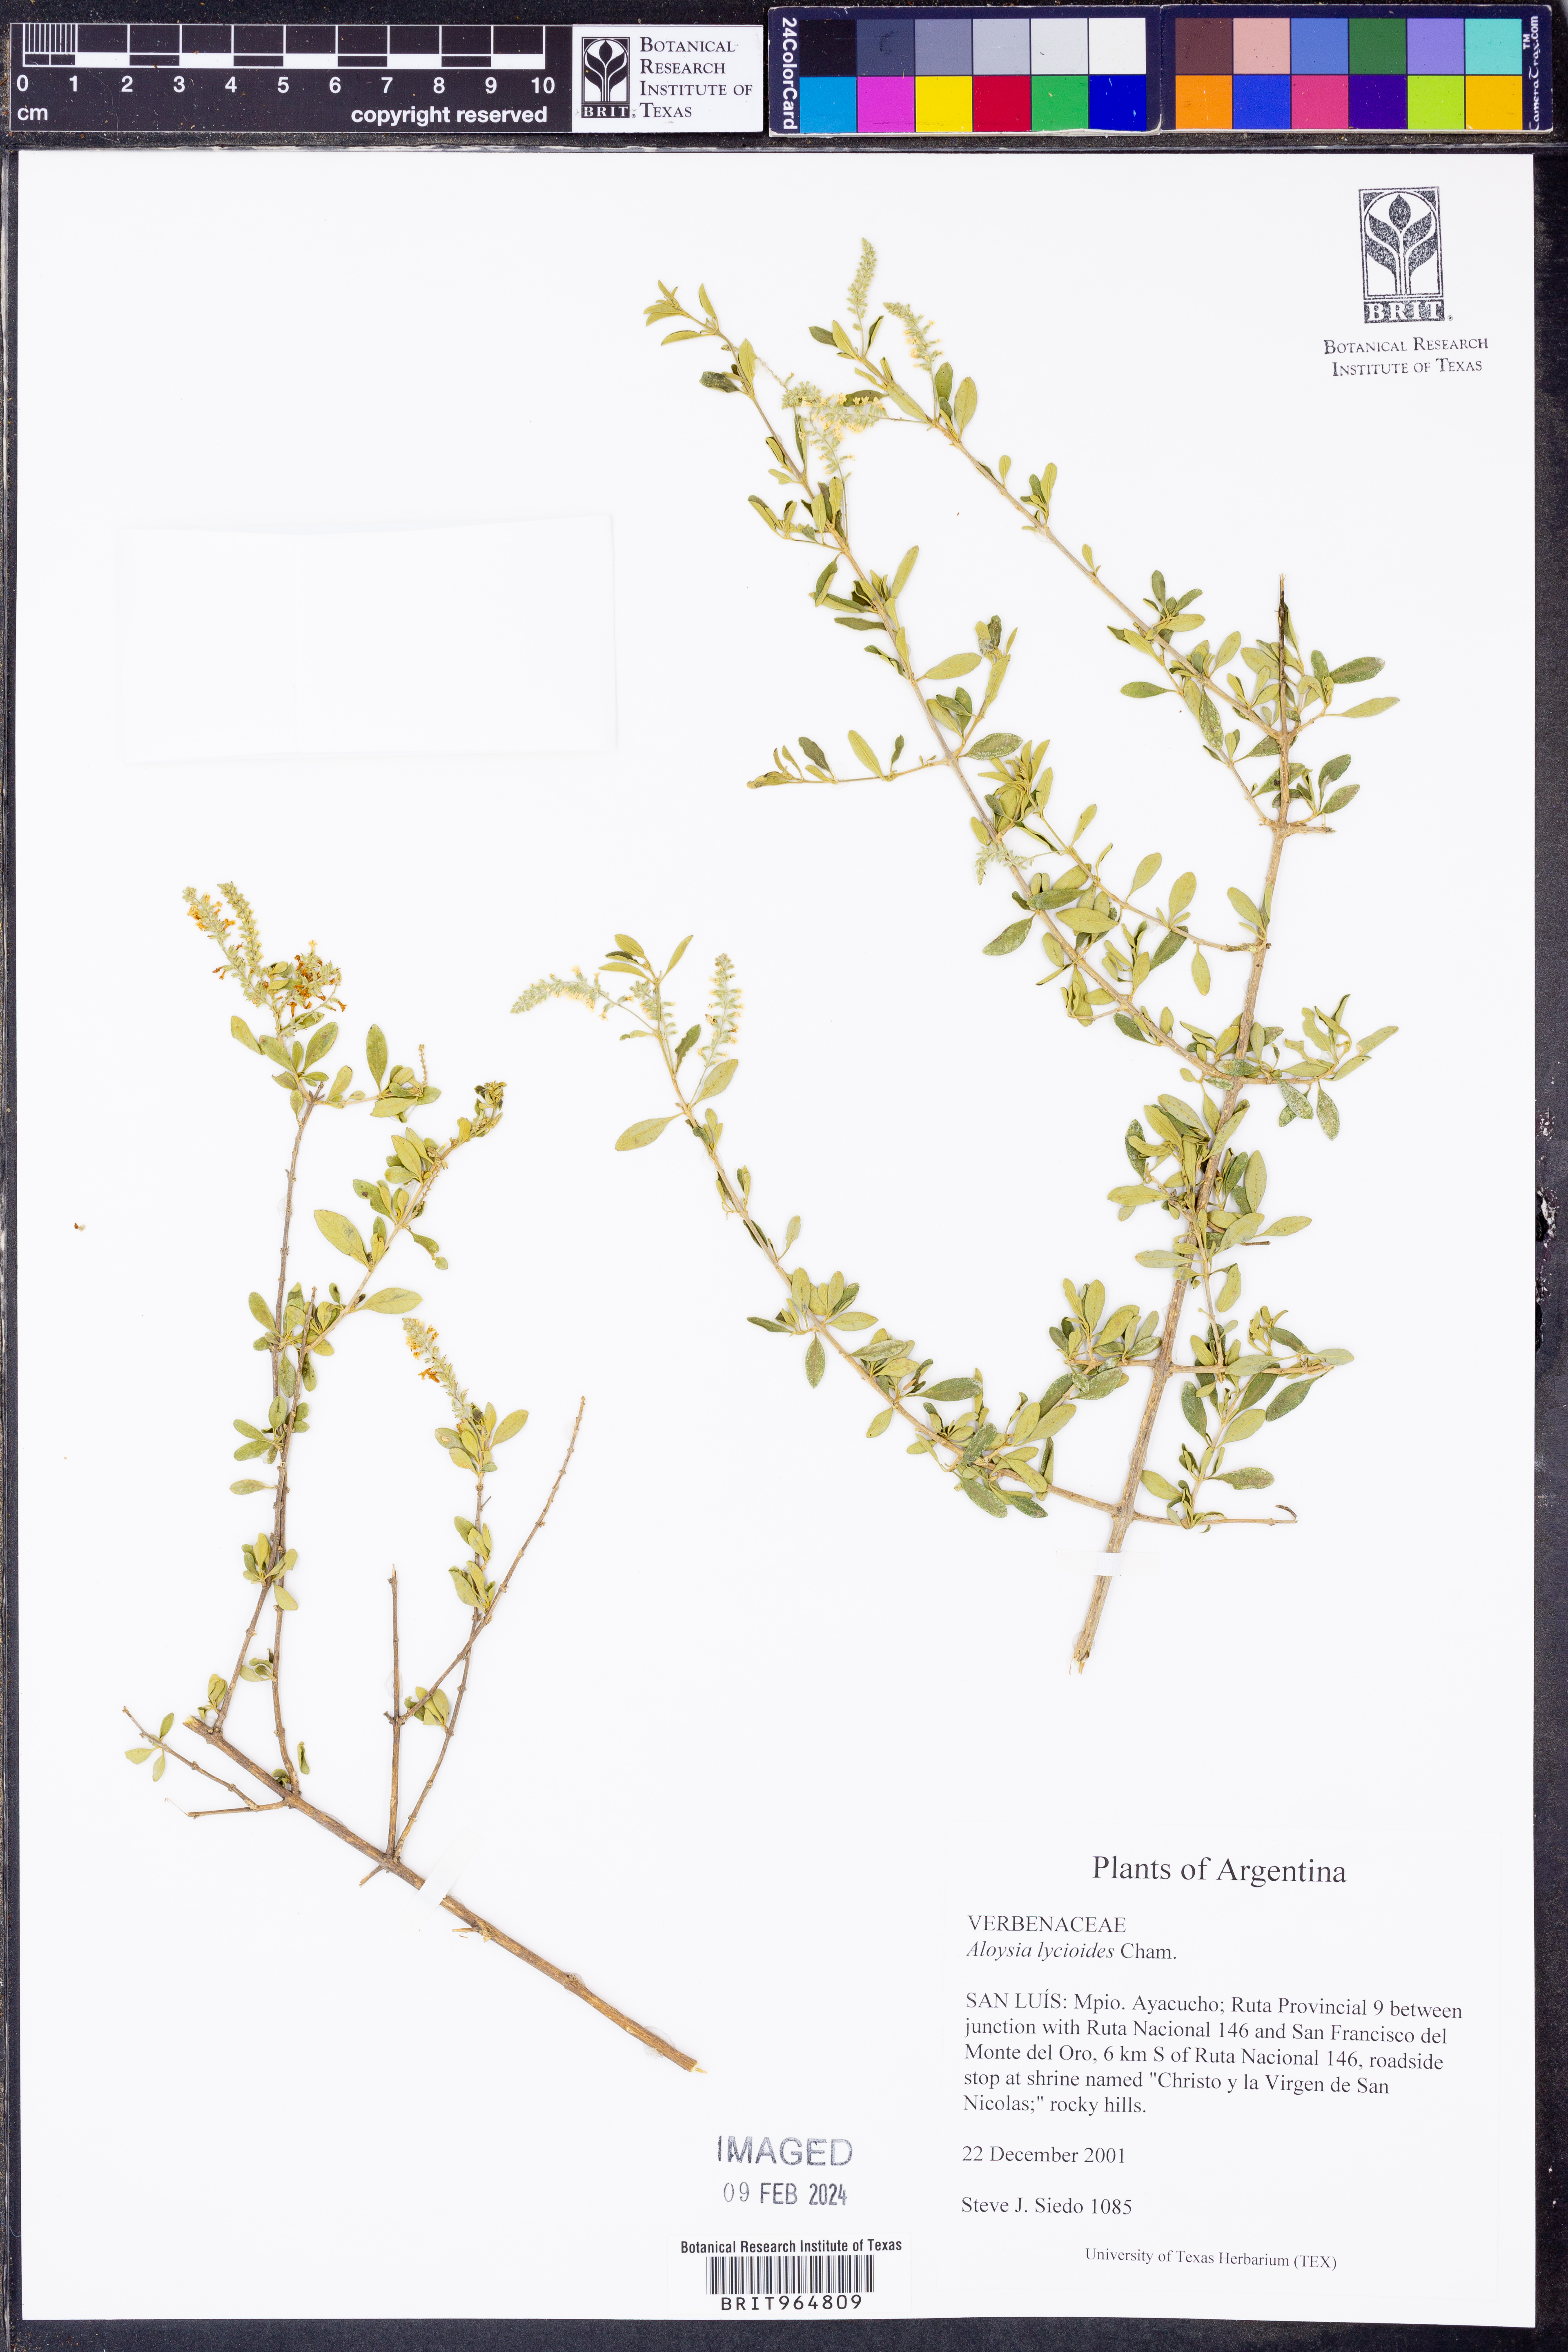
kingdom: Plantae
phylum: Tracheophyta
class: Magnoliopsida
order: Lamiales
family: Verbenaceae
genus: Aloysia
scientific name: Aloysia
